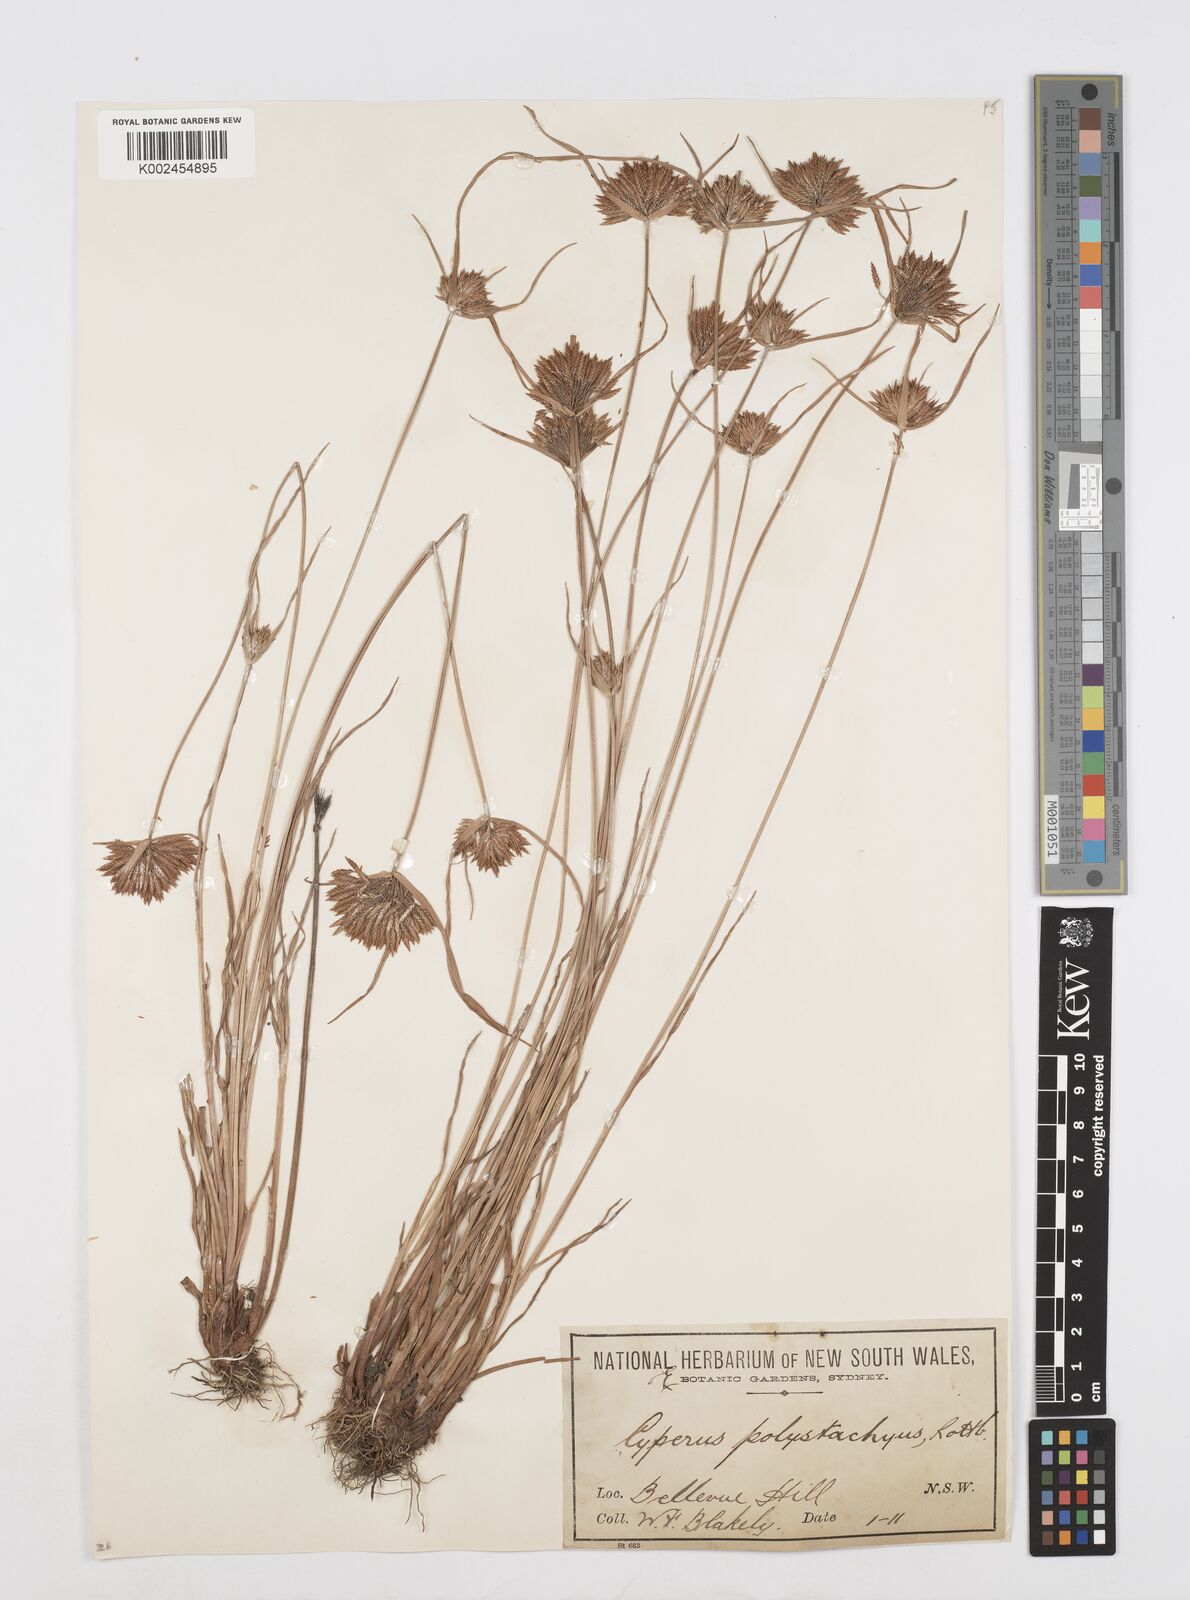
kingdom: Plantae
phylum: Tracheophyta
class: Liliopsida
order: Poales
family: Cyperaceae
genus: Cyperus
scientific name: Cyperus polystachyos
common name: Bunchy flat sedge
